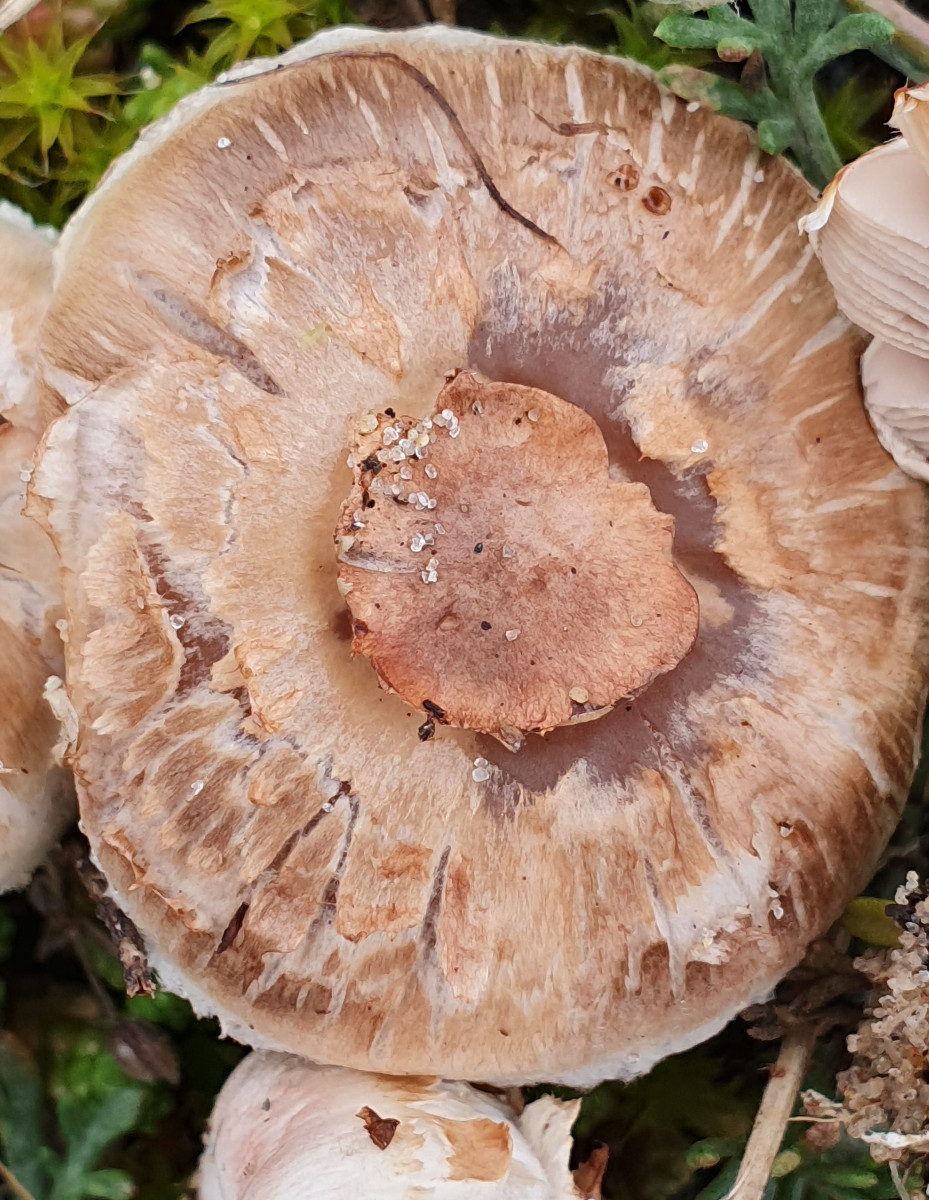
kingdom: Fungi
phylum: Basidiomycota
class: Agaricomycetes
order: Agaricales
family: Agaricaceae
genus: Agaricus
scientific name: Agaricus devoniensis
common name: klit-champignon
